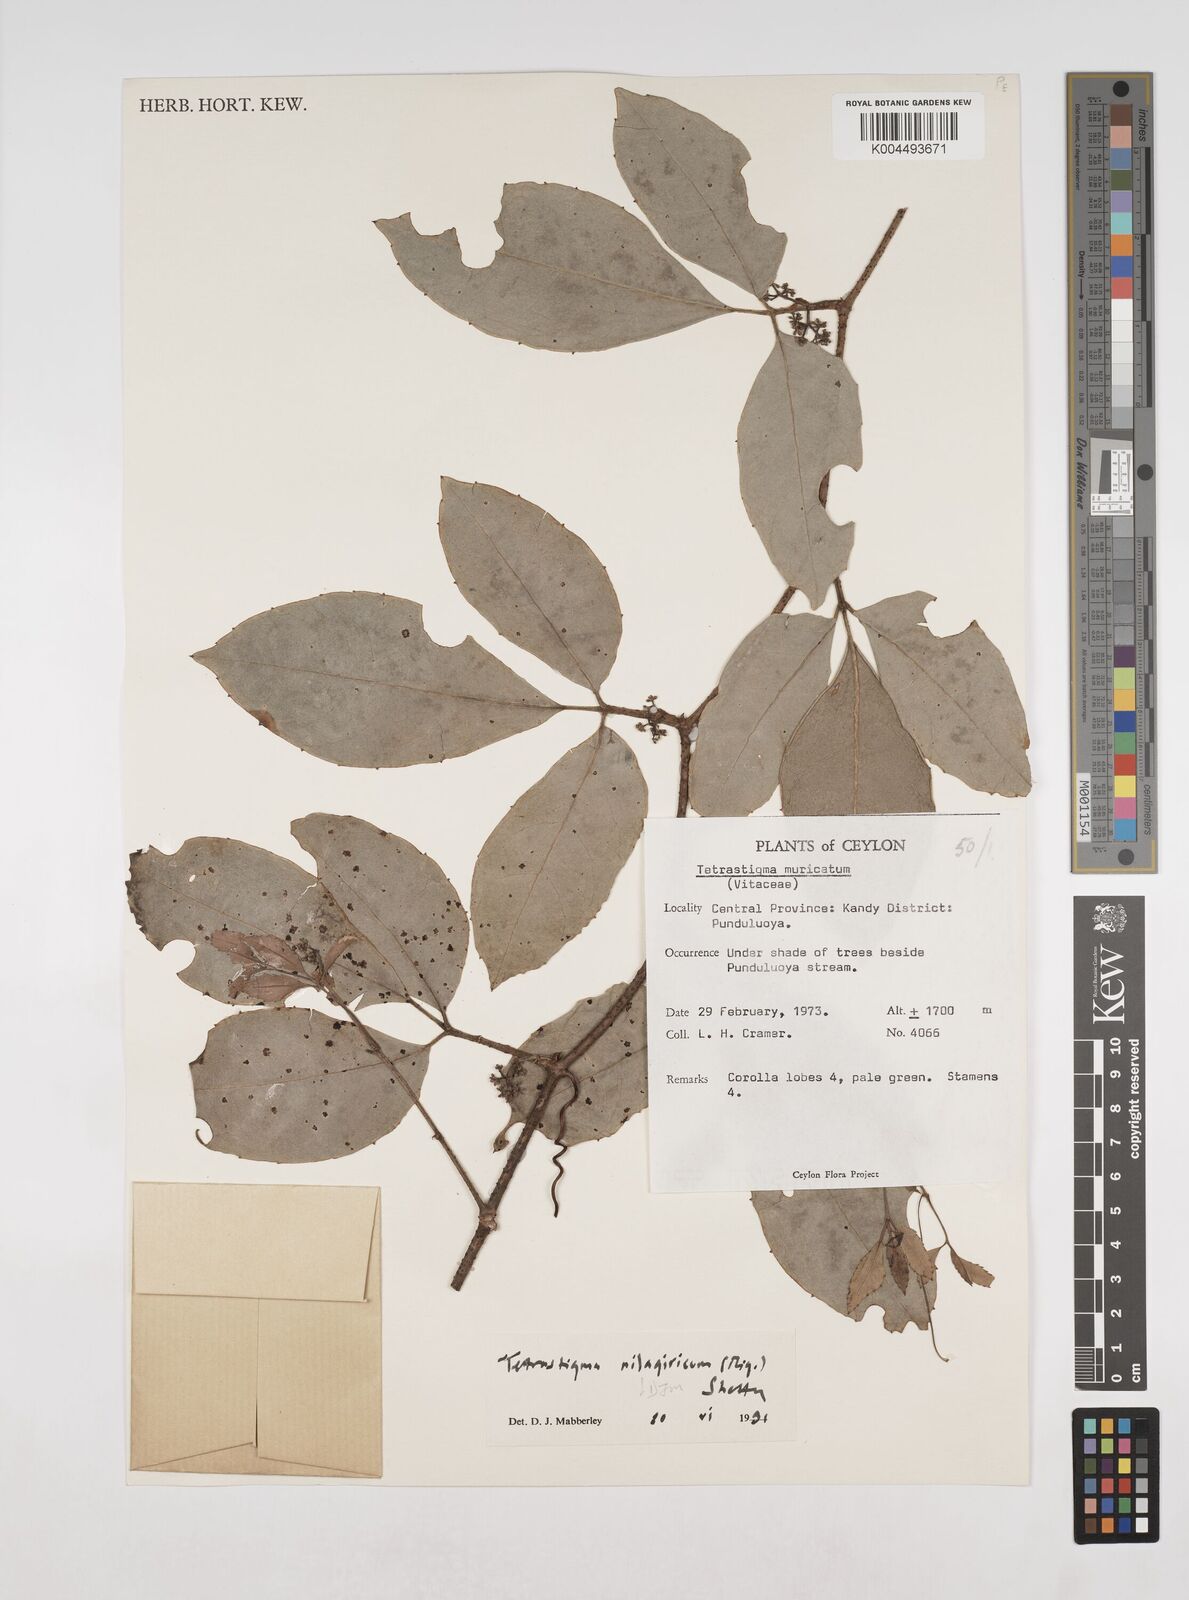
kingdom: Plantae
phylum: Tracheophyta
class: Magnoliopsida
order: Vitales
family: Vitaceae
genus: Tetrastigma
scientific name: Tetrastigma leucostaphylum
